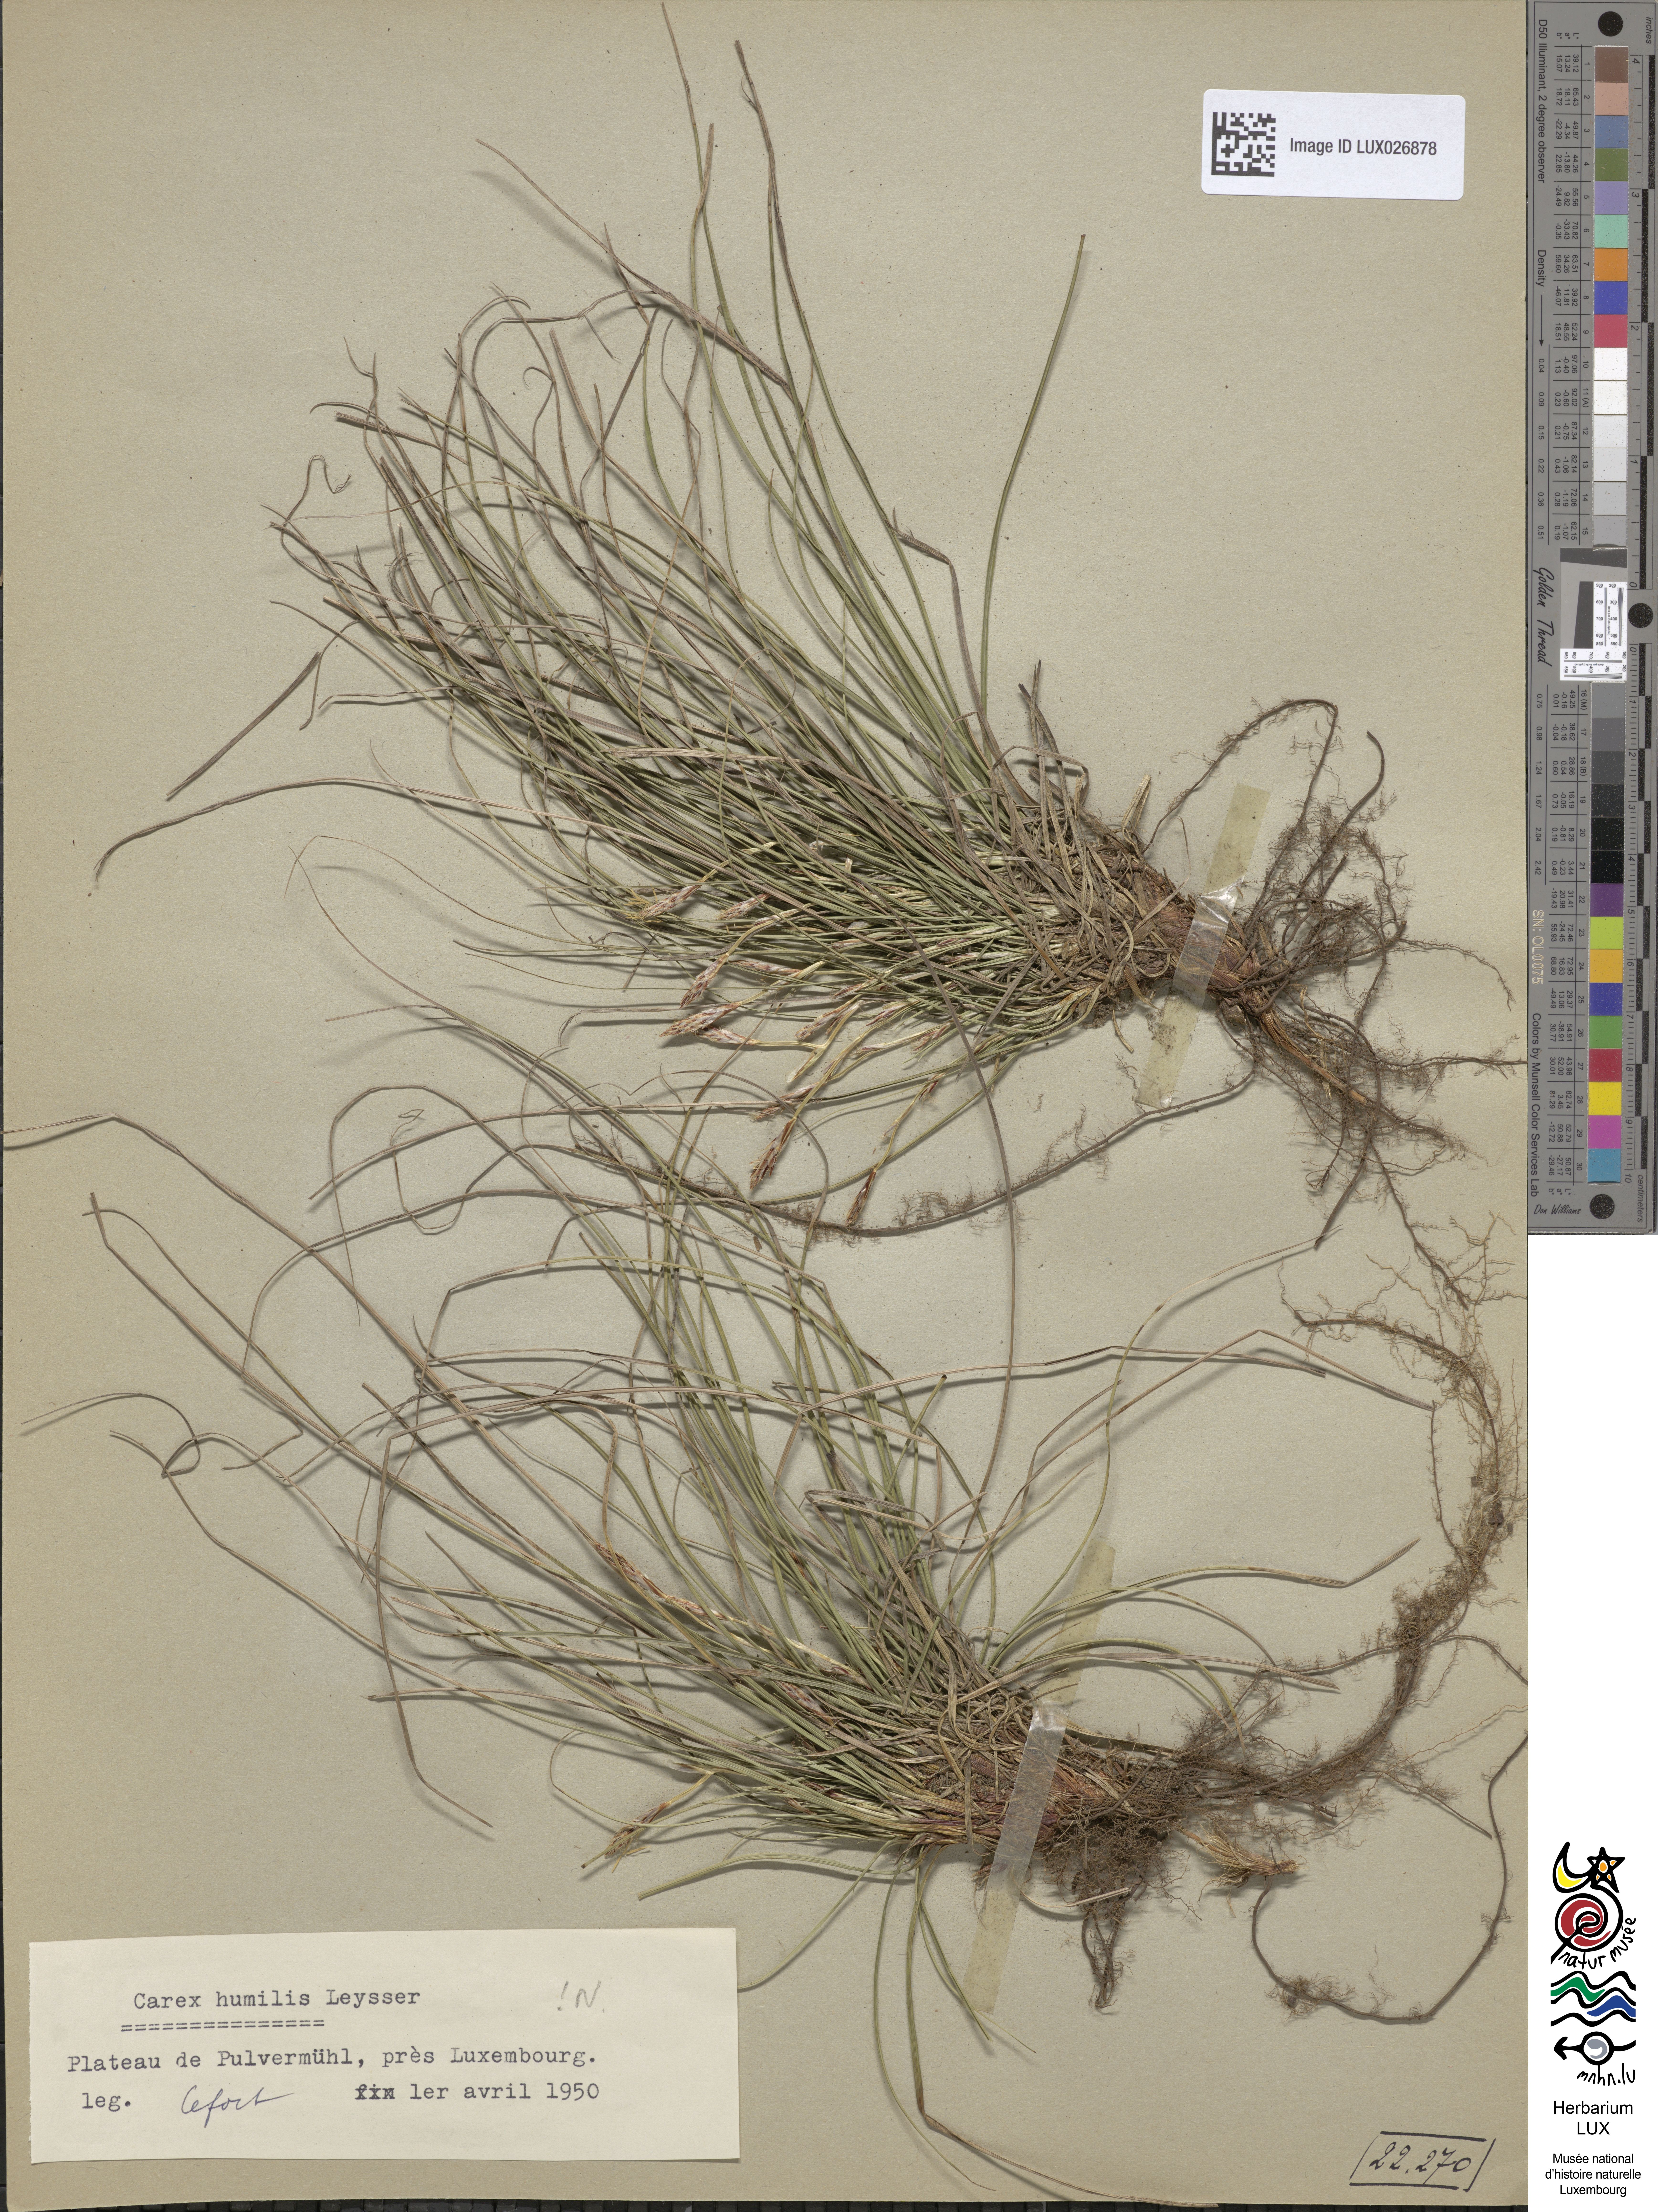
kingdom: Plantae
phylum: Tracheophyta
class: Liliopsida
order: Poales
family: Cyperaceae
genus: Carex
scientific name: Carex humilis
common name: Dwarf sedge
